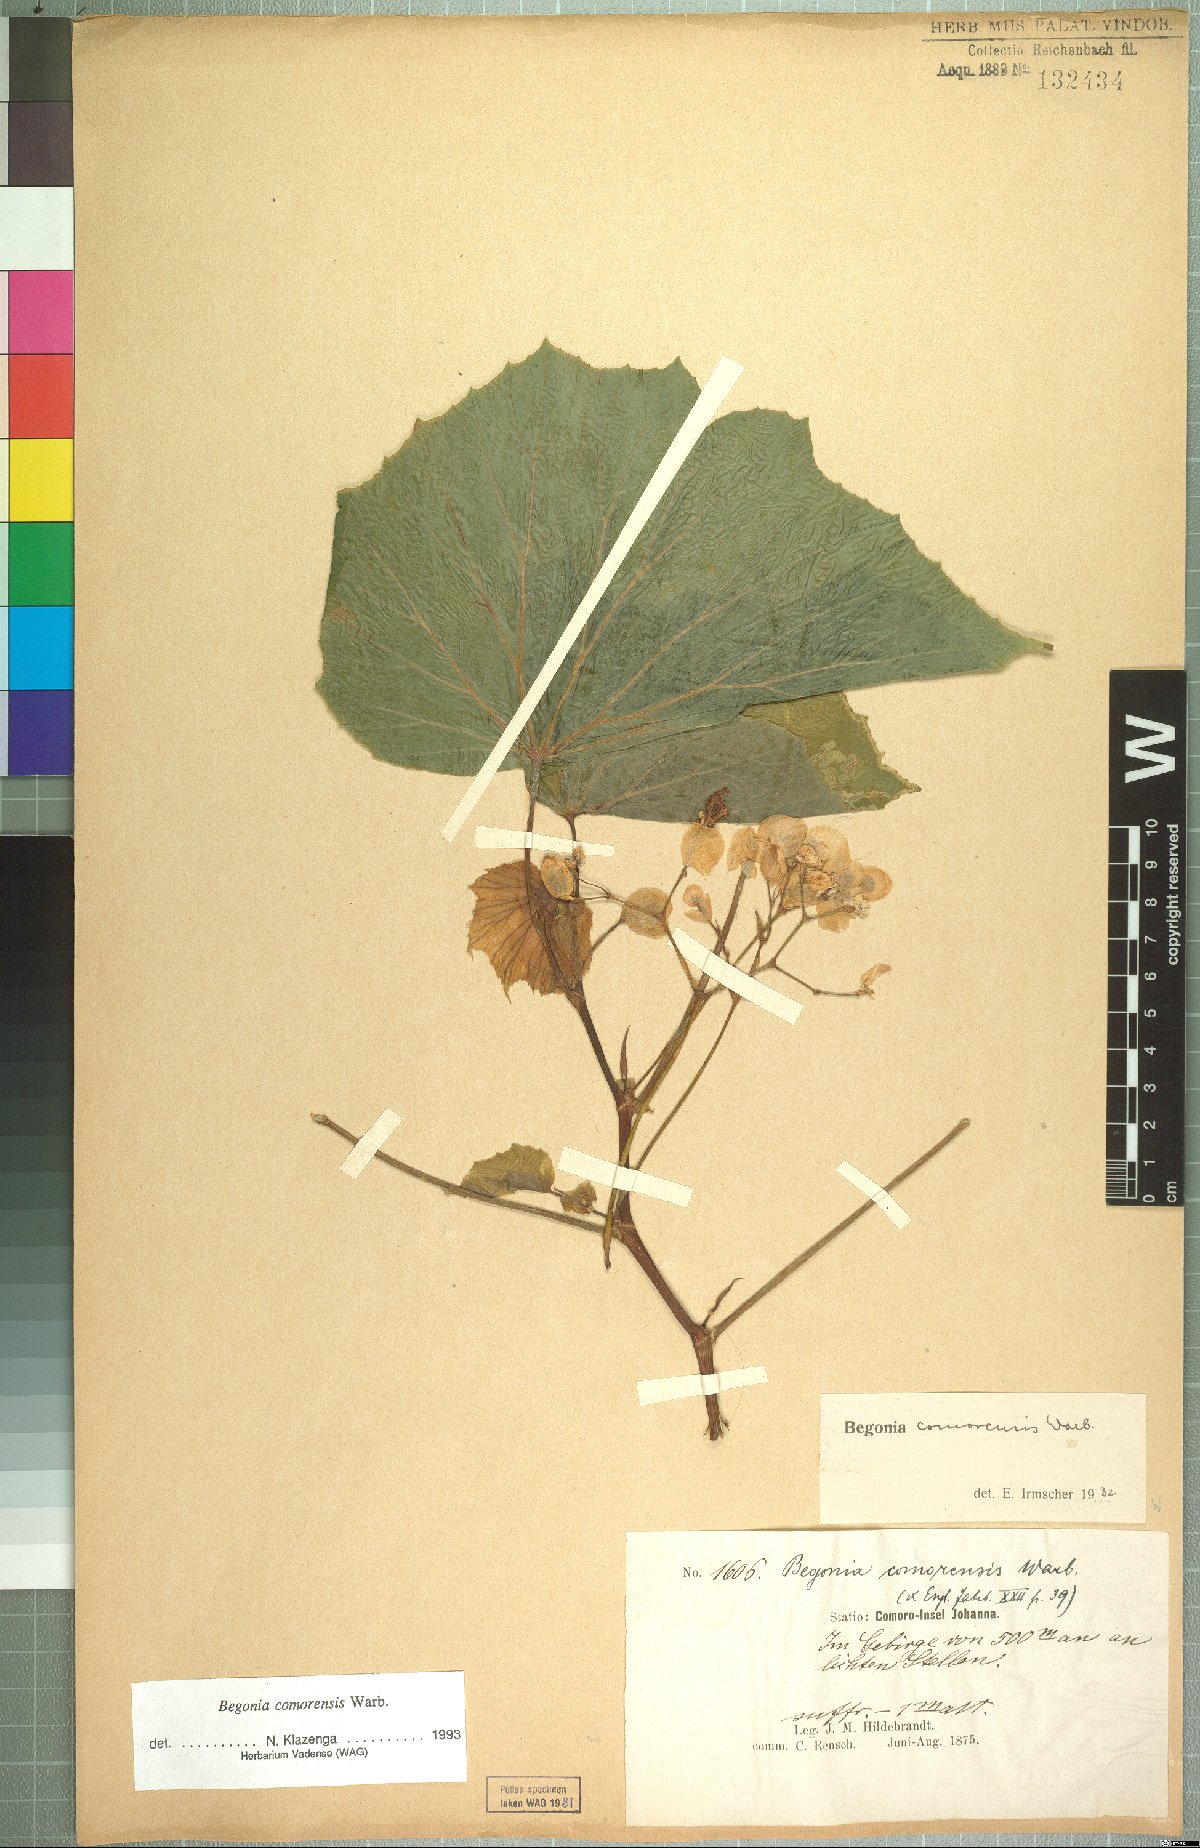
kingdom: Plantae
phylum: Tracheophyta
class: Magnoliopsida
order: Cucurbitales
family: Begoniaceae
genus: Begonia
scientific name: Begonia comorensis
